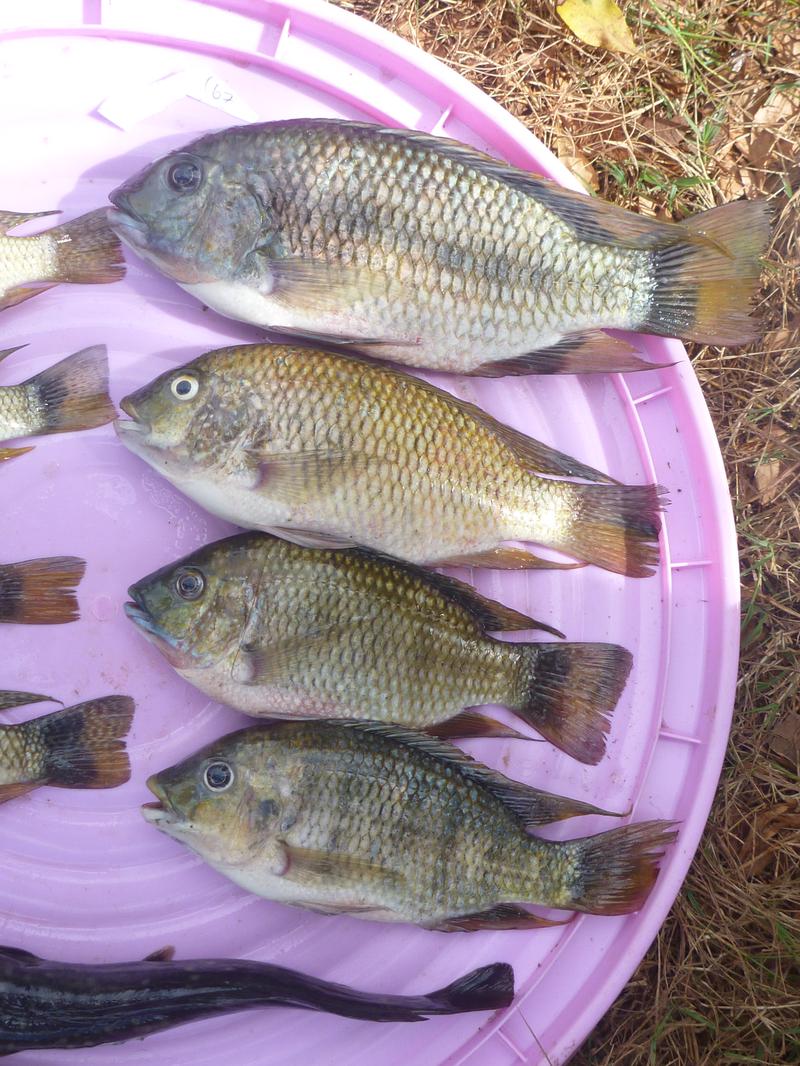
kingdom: Animalia
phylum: Chordata
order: Perciformes
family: Cichlidae
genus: Coptodon
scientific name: Coptodon rendalli
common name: Redbreast tilapia
